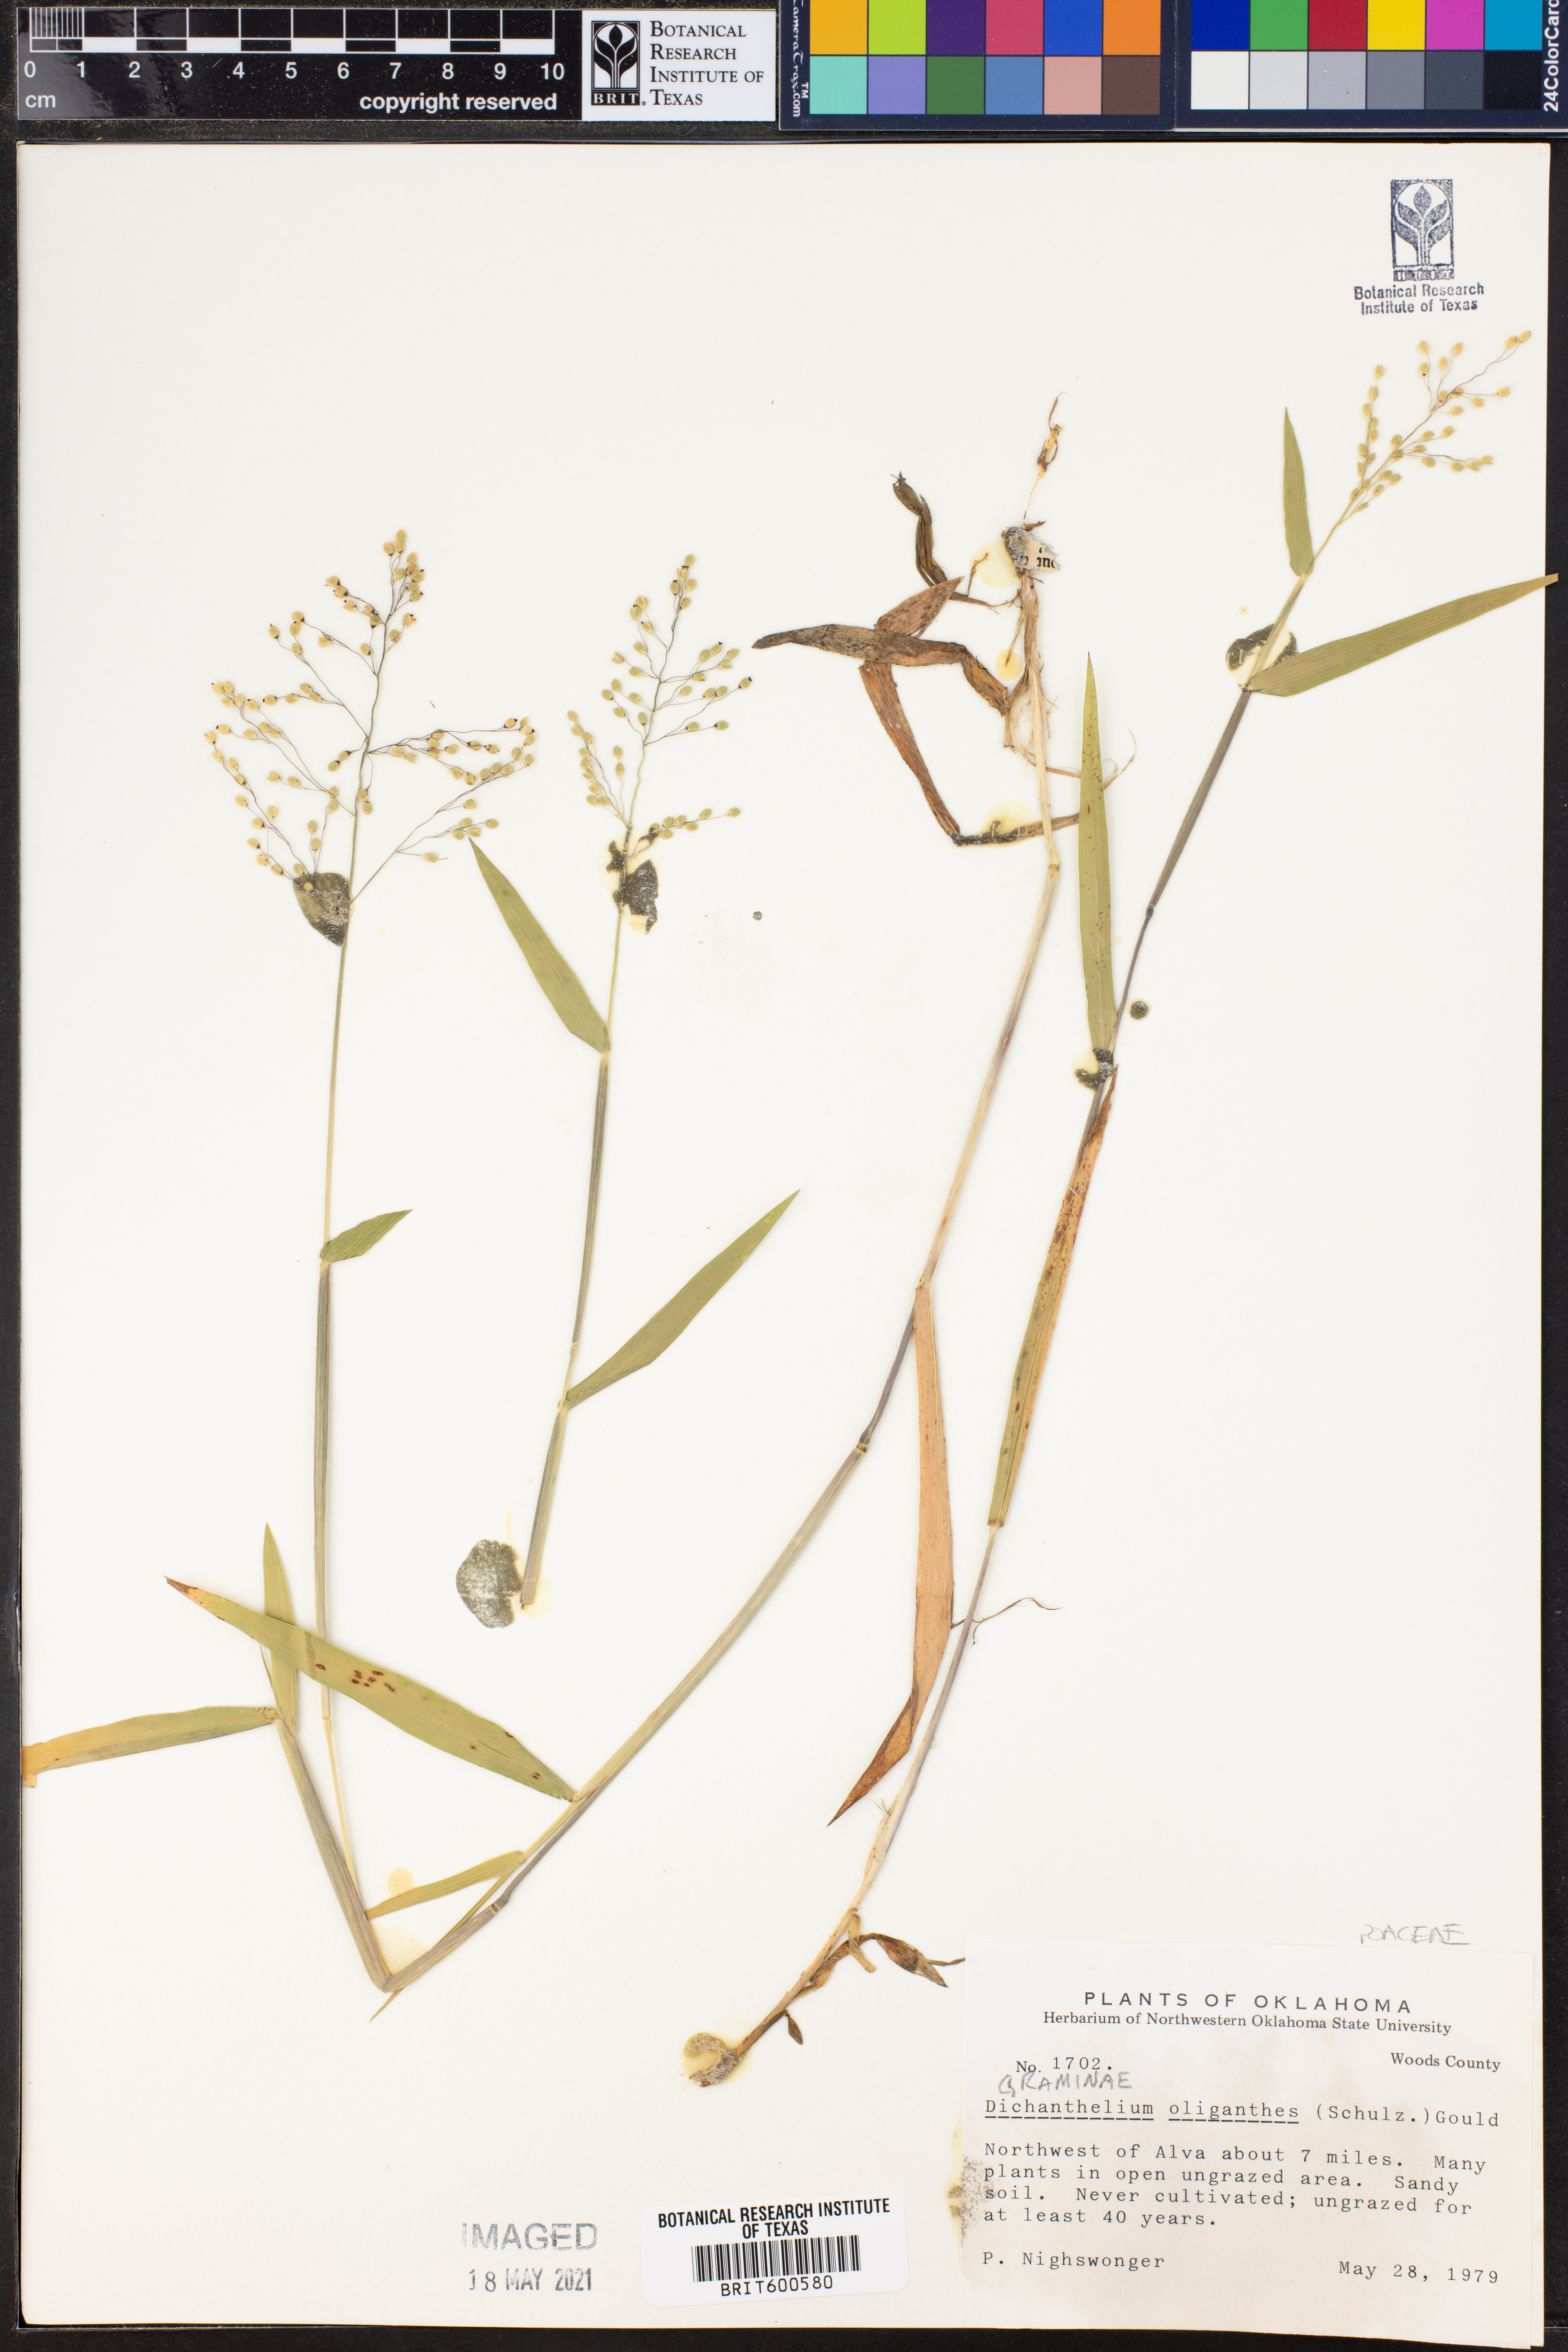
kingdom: Plantae
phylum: Tracheophyta
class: Liliopsida
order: Poales
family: Poaceae
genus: Dichanthelium
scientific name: Dichanthelium oligosanthes
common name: Few-anther obscuregrass
